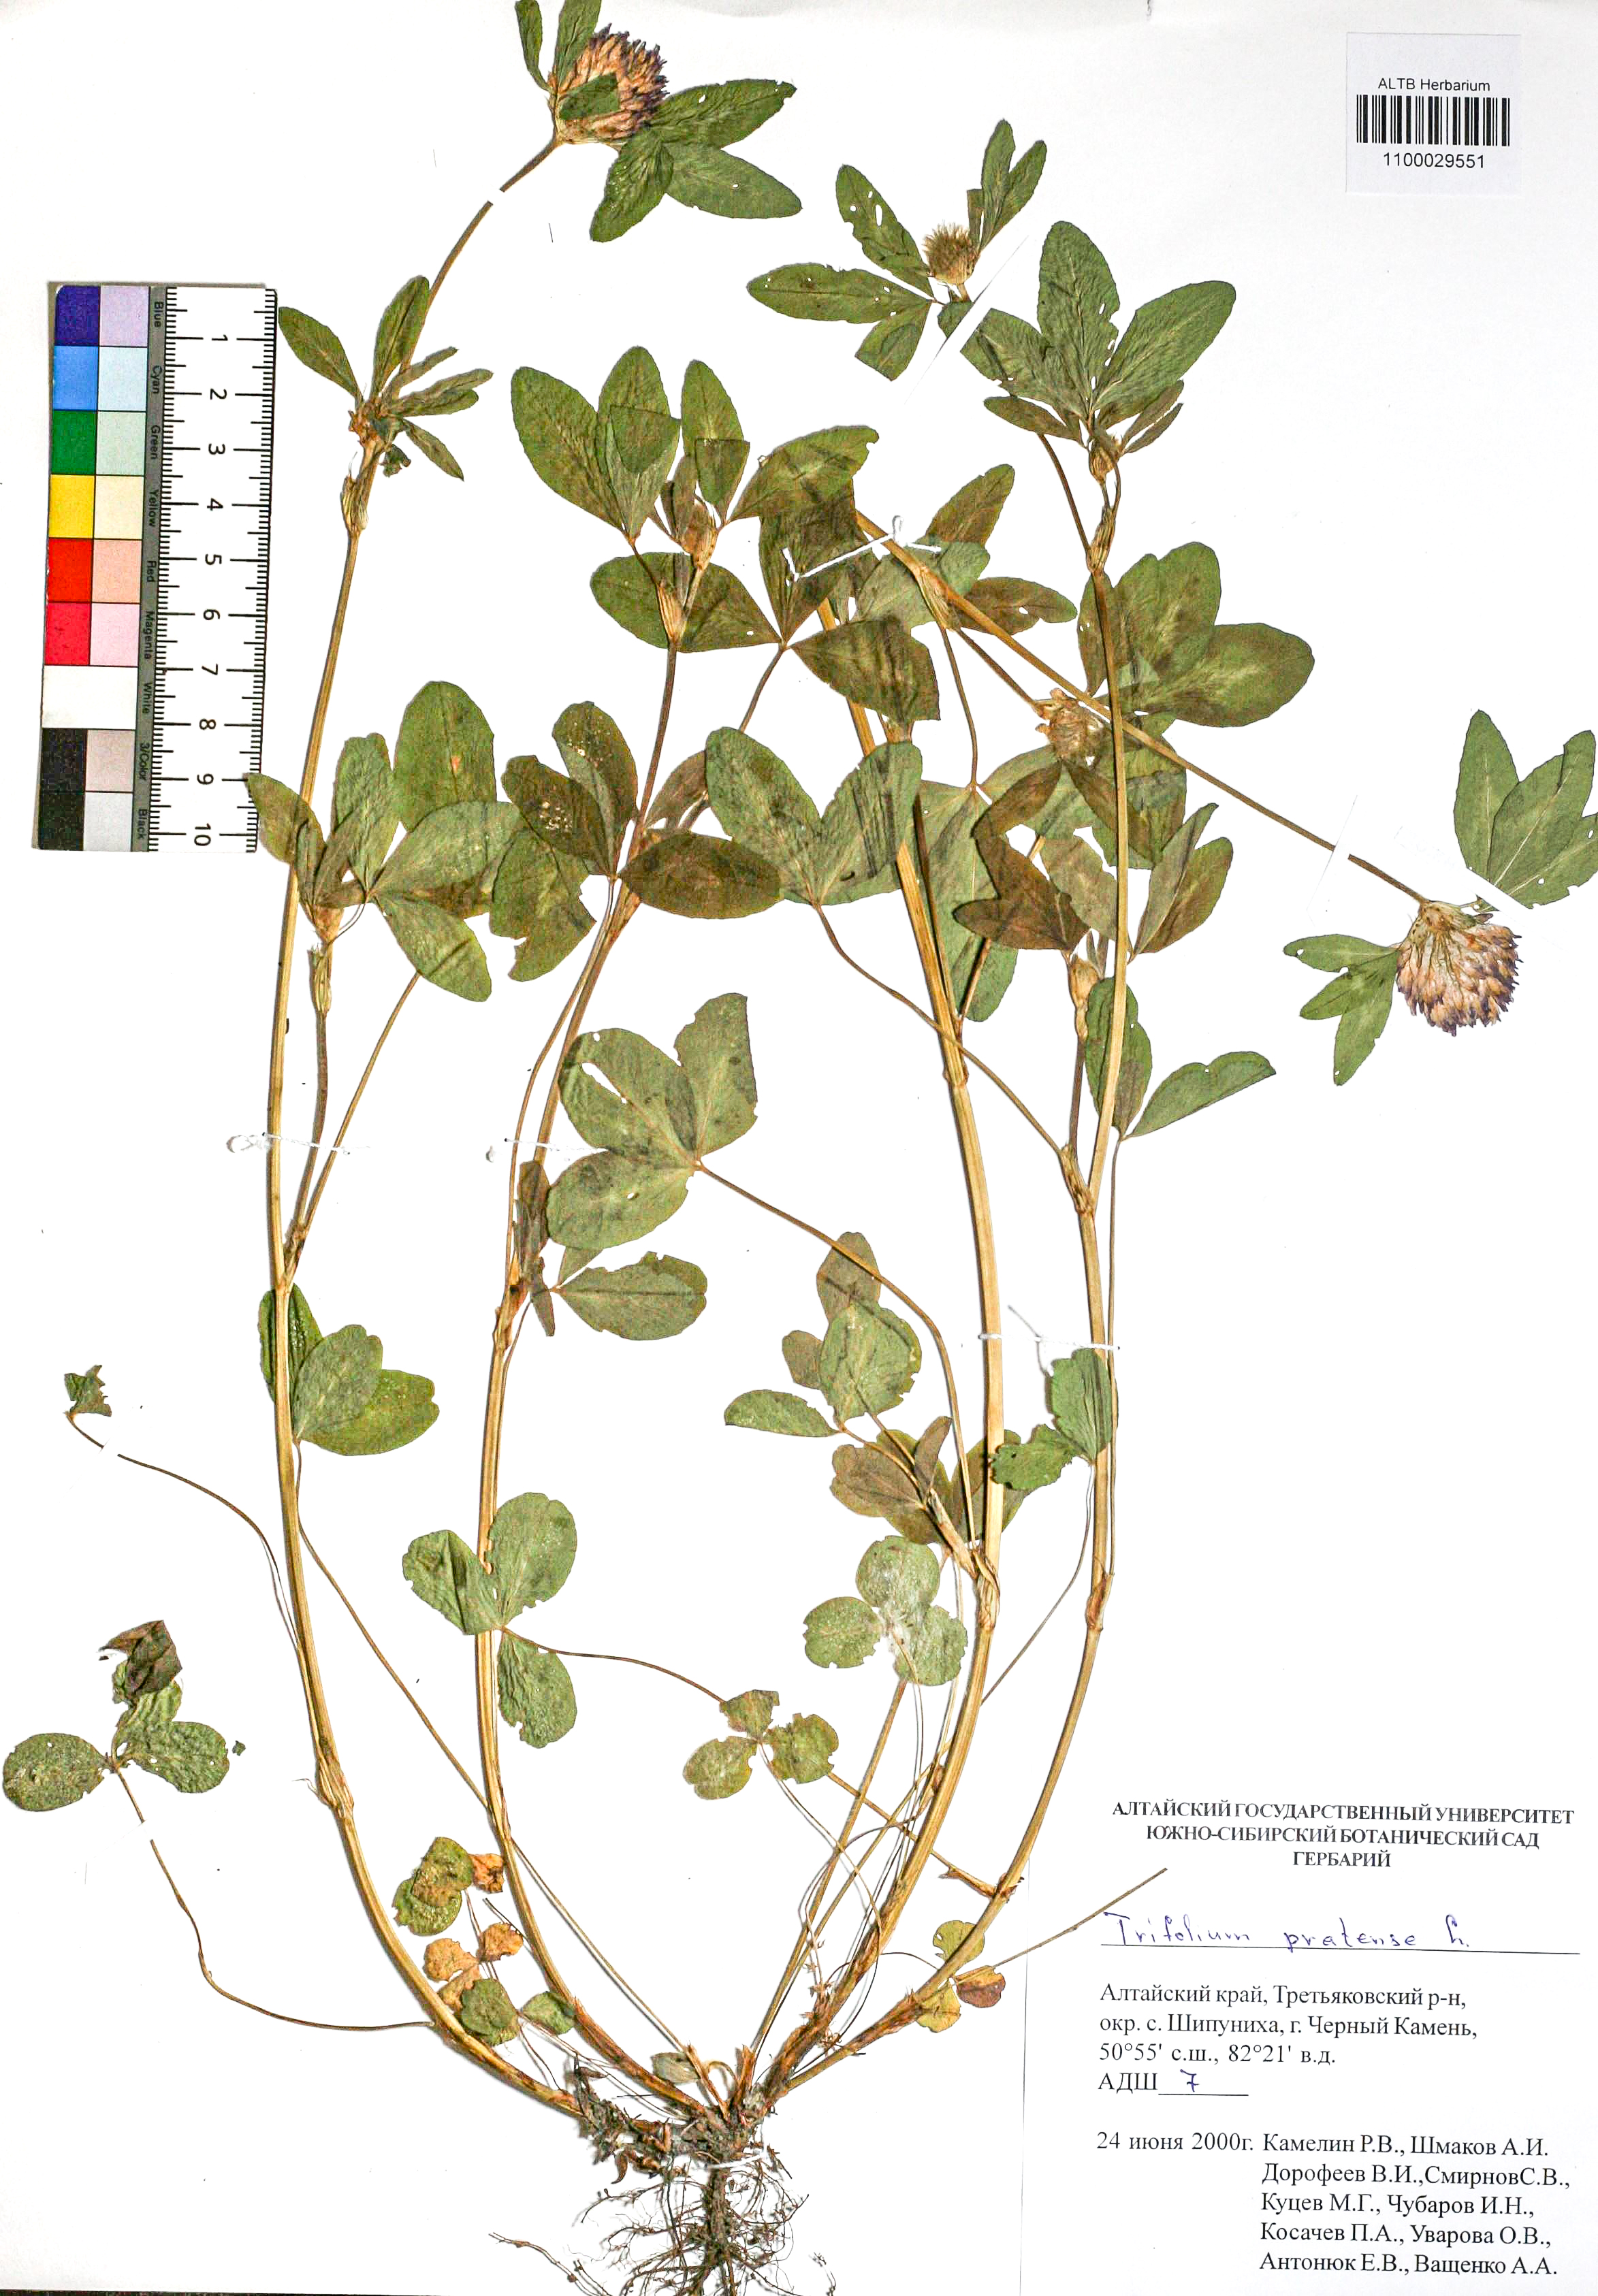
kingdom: Plantae
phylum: Tracheophyta
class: Magnoliopsida
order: Fabales
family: Fabaceae
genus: Trifolium
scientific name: Trifolium pratense
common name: Red clover
